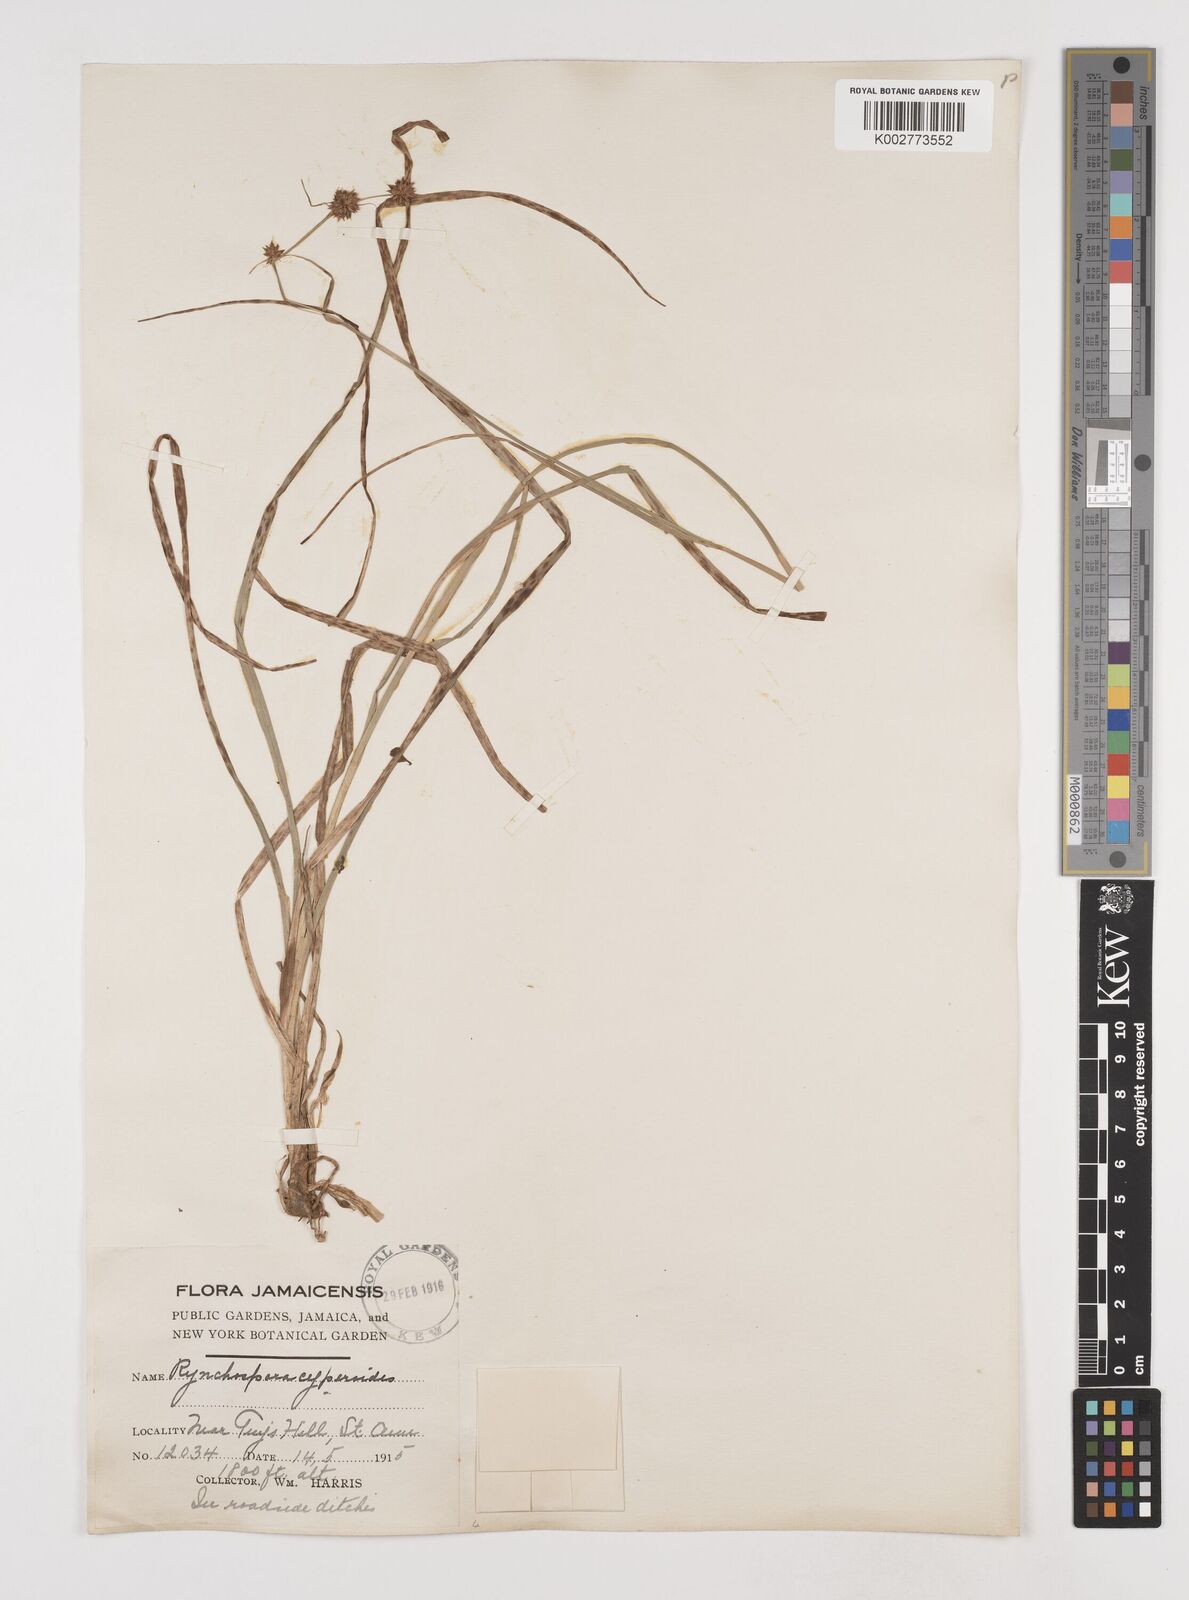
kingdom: Plantae
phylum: Tracheophyta
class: Liliopsida
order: Poales
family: Cyperaceae
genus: Rhynchospora
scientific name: Rhynchospora holoschoenoides
